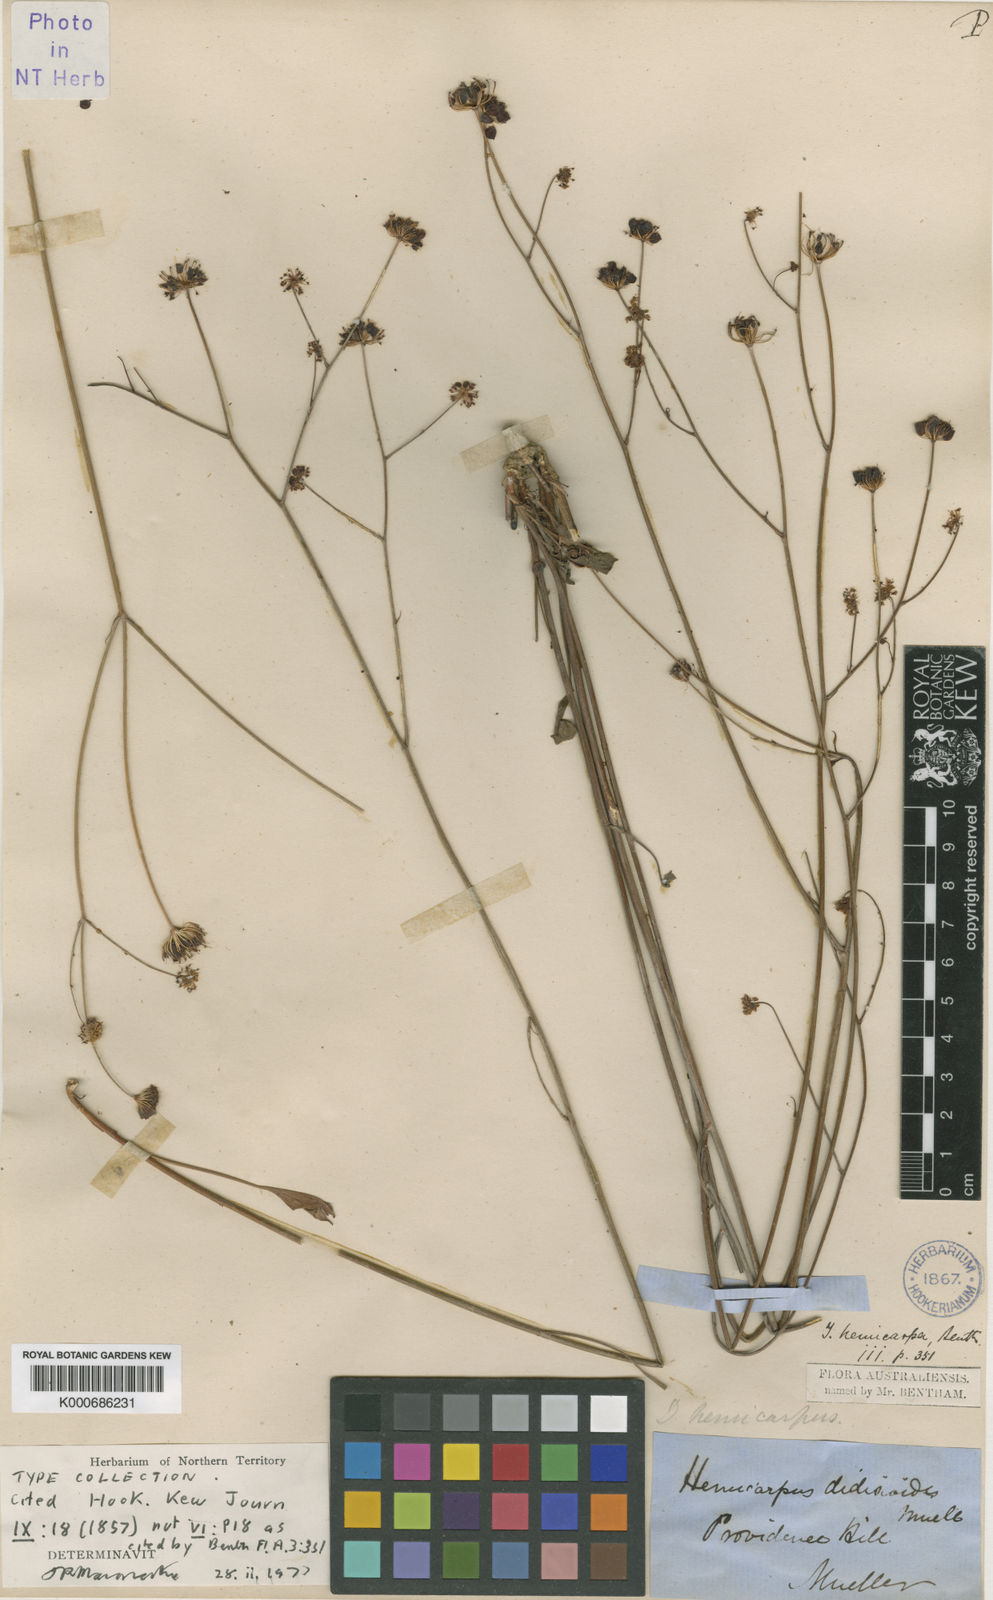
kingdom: Plantae
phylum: Tracheophyta
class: Magnoliopsida
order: Apiales
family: Araliaceae
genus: Trachymene
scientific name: Trachymene didiscoides
